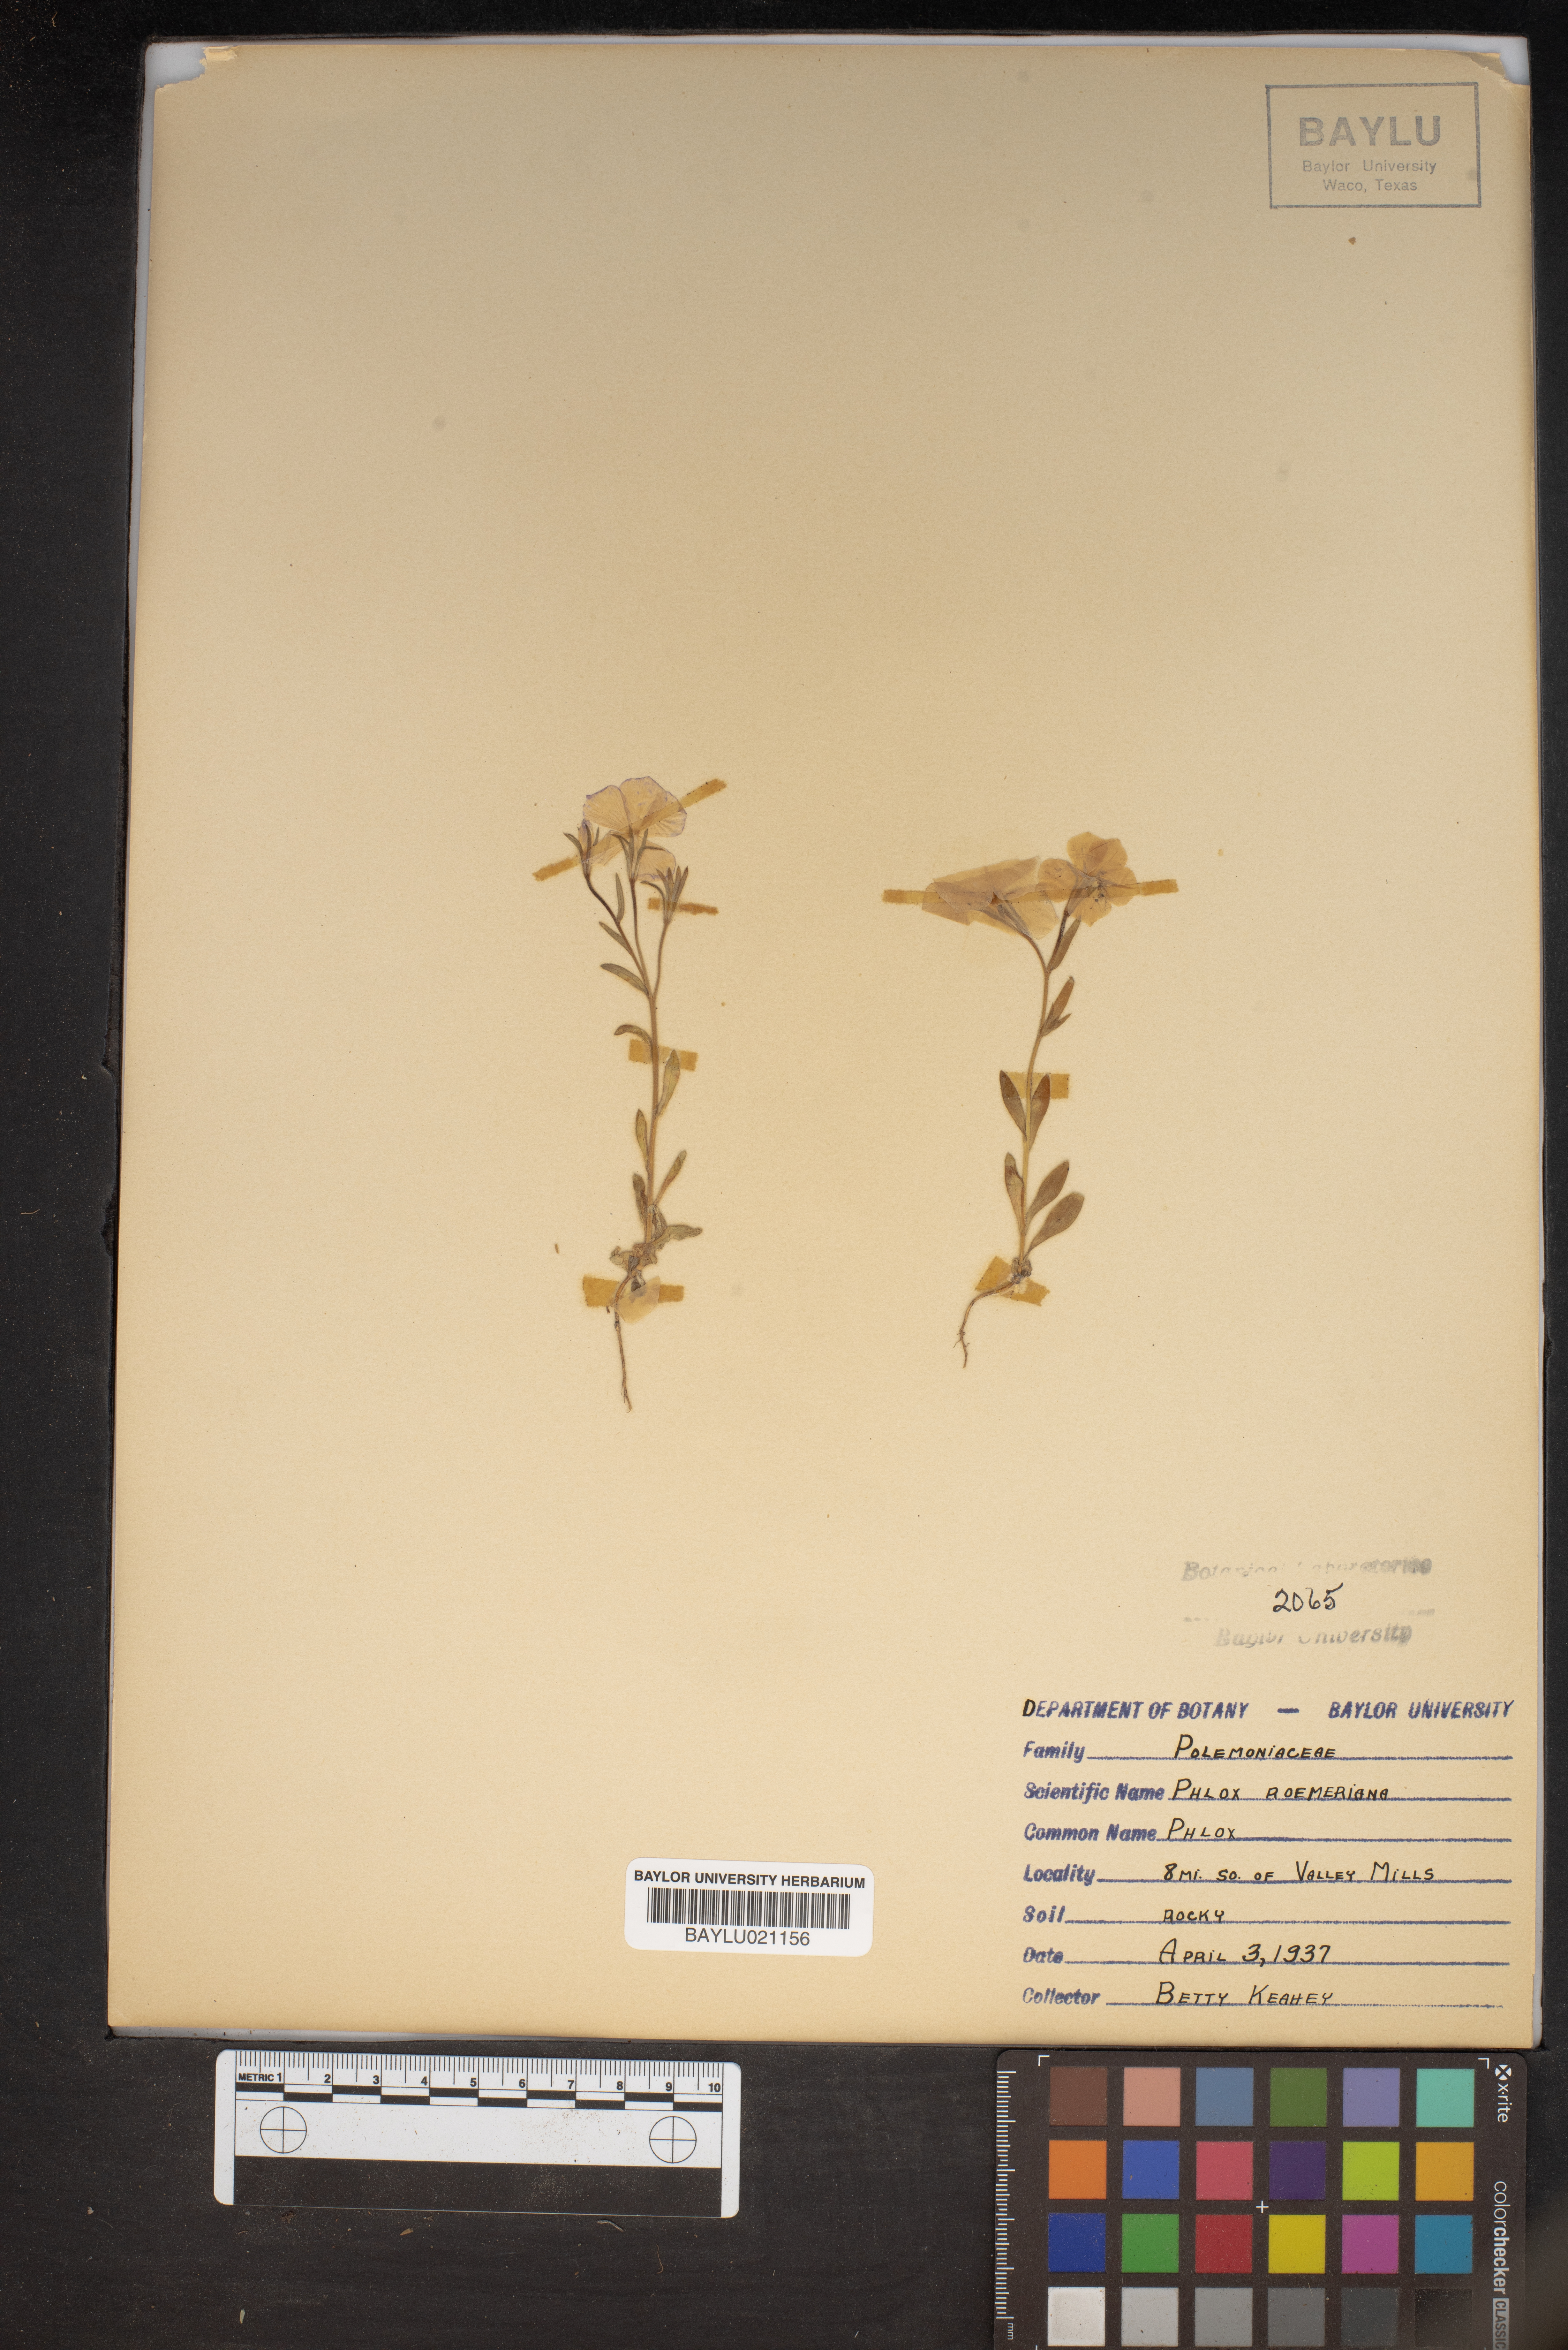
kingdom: Plantae
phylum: Tracheophyta
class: Magnoliopsida
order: Ericales
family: Polemoniaceae
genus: Phlox
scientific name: Phlox roemeriana
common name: Roemer's phlox
